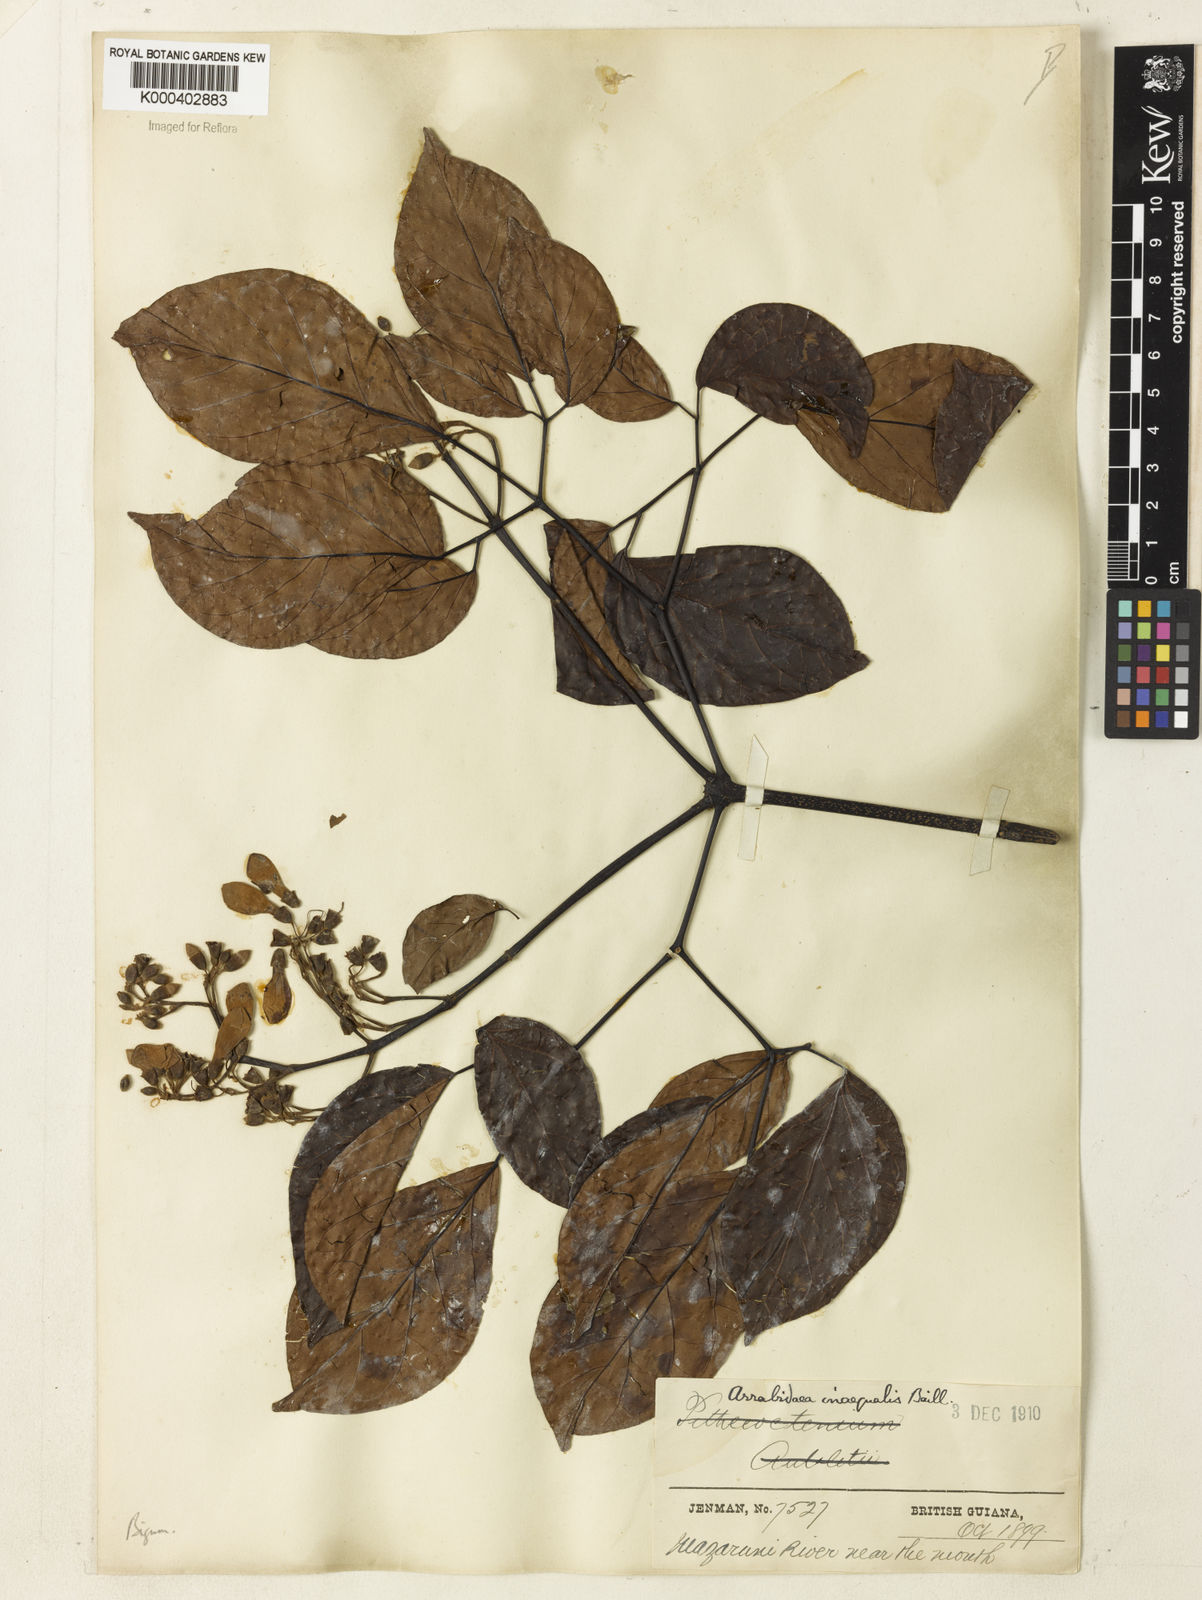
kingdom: Plantae
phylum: Tracheophyta
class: Magnoliopsida
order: Lamiales
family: Bignoniaceae
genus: Cuspidaria
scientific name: Cuspidaria inaequalis
